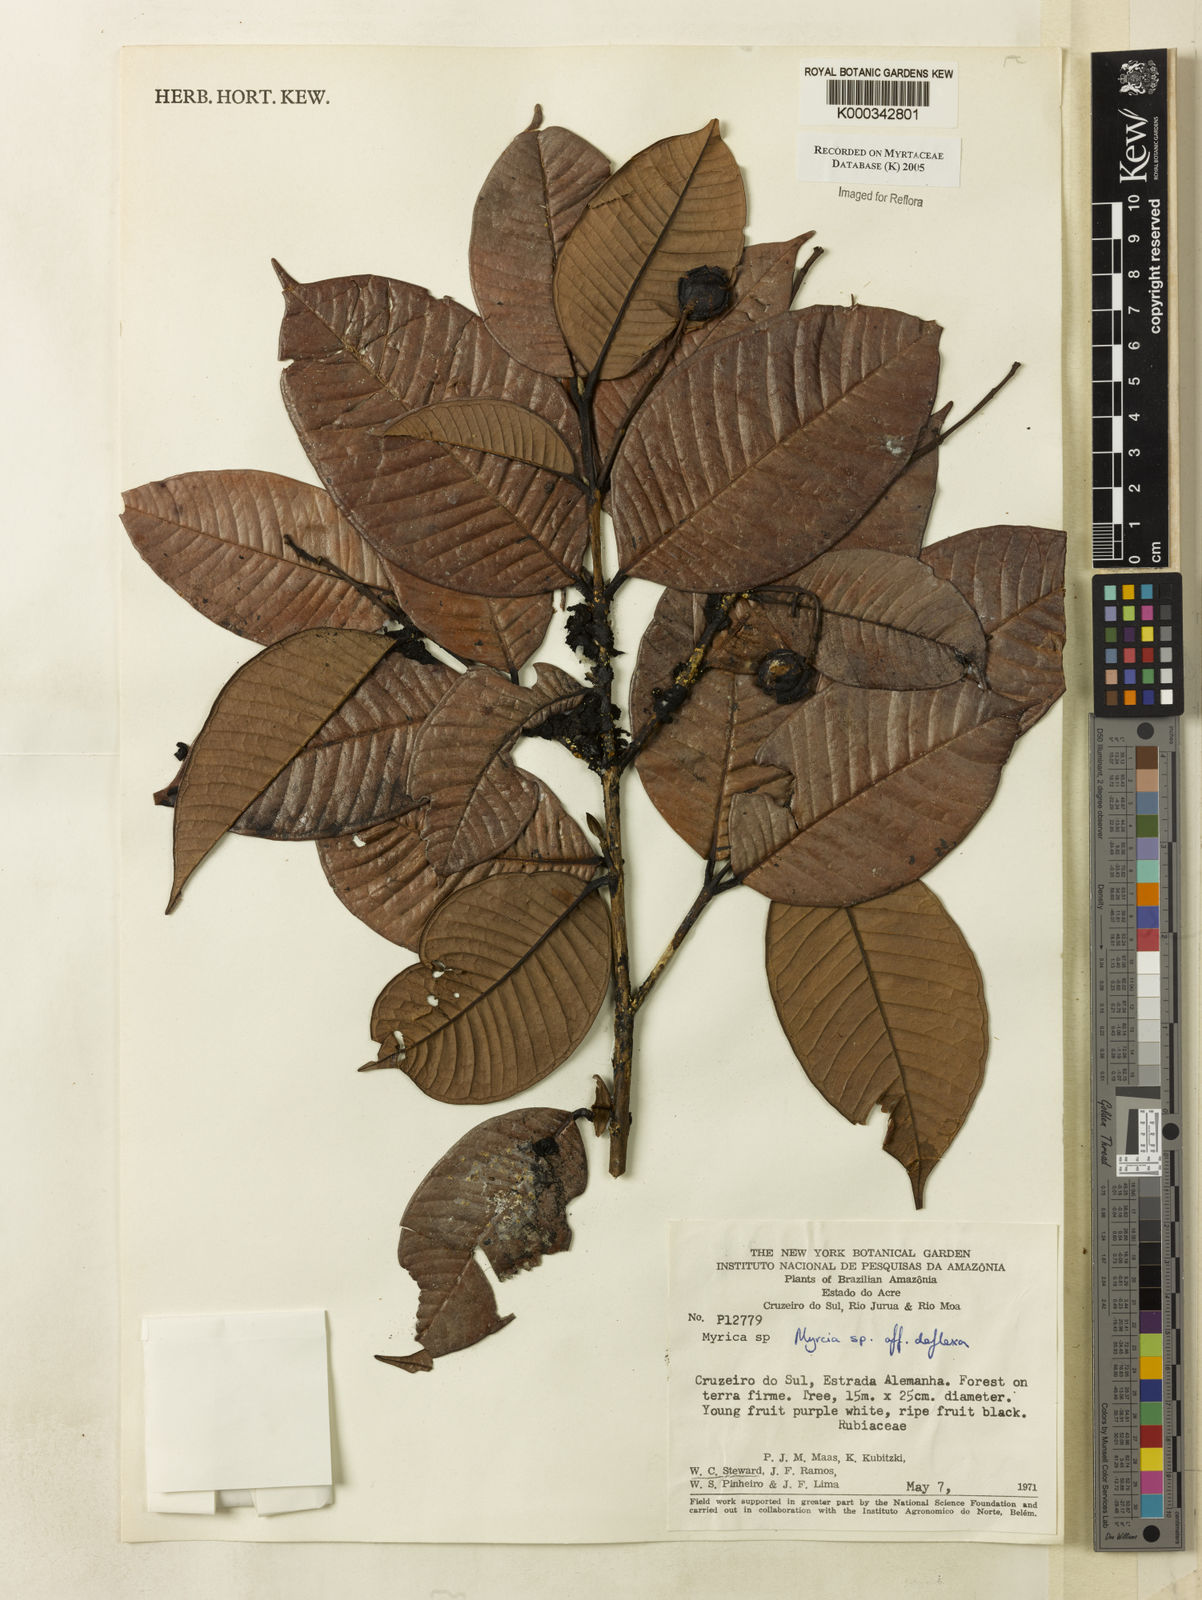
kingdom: Plantae
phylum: Tracheophyta
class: Magnoliopsida
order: Myrtales
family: Myrtaceae
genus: Myrcia
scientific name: Myrcia deflexa
